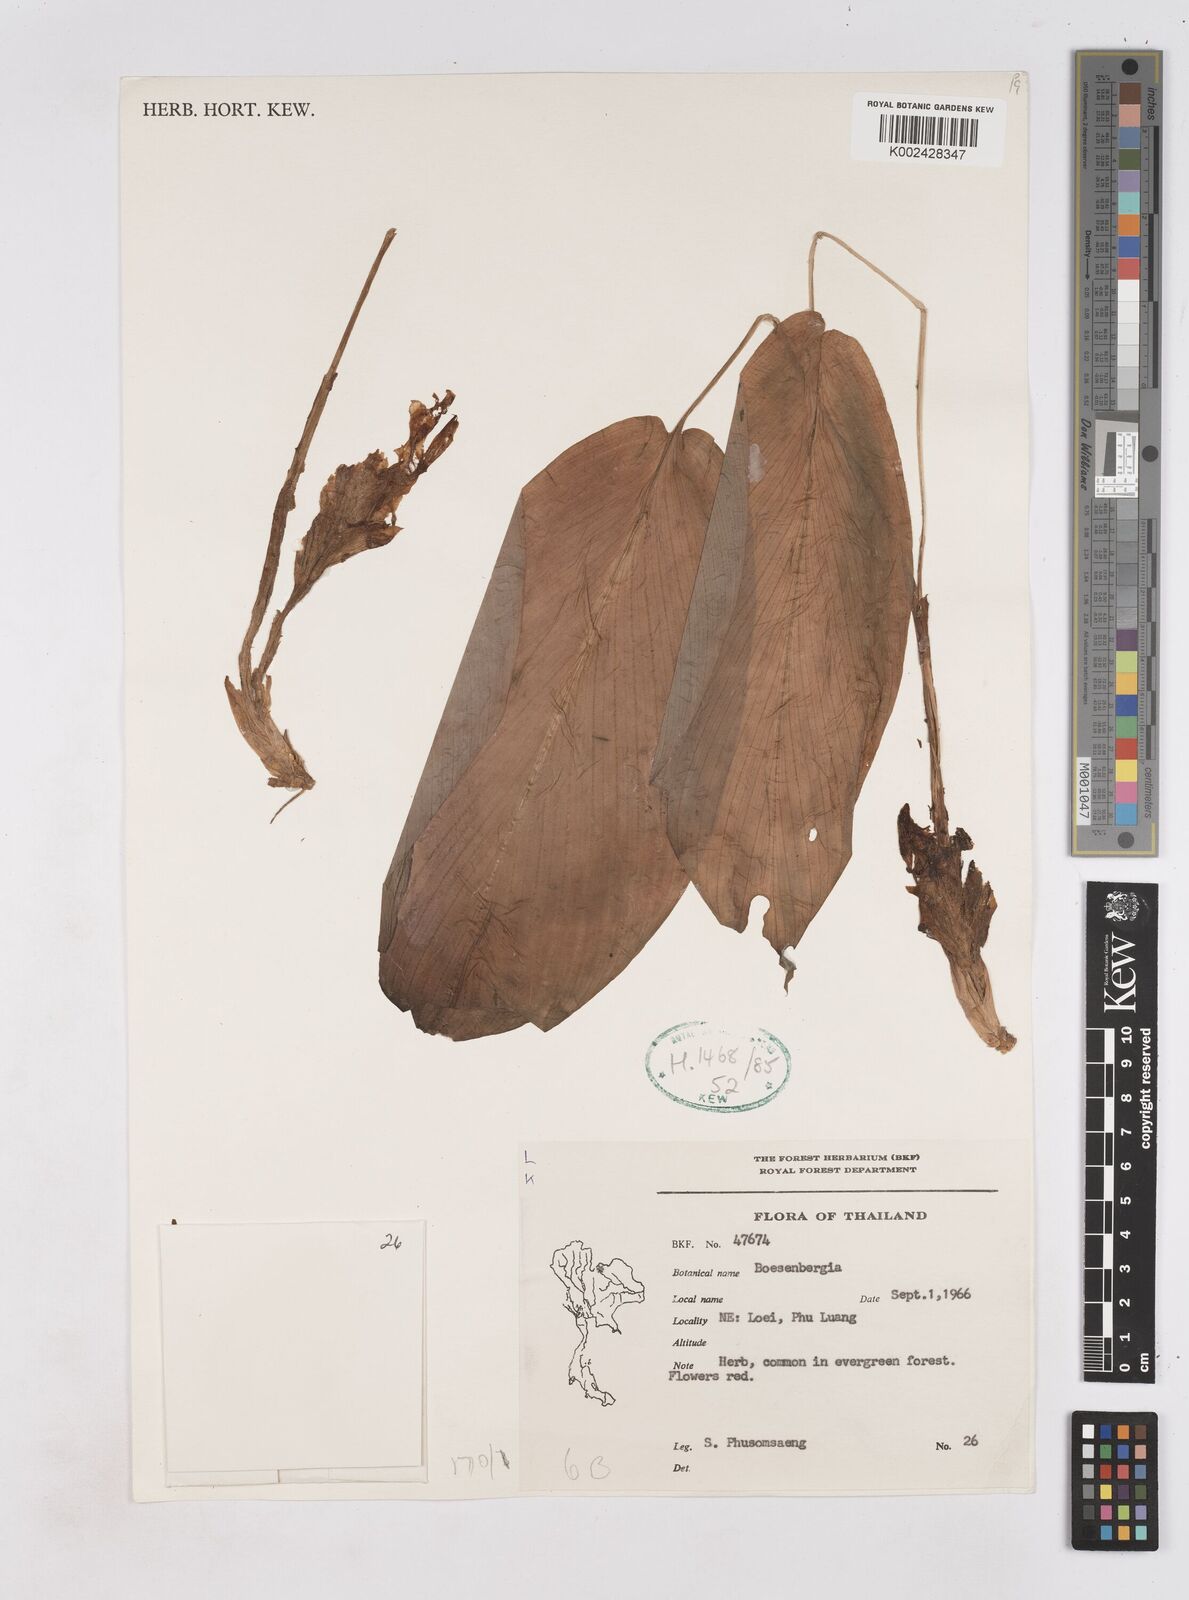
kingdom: Plantae
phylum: Tracheophyta
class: Liliopsida
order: Zingiberales
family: Zingiberaceae
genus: Boesenbergia
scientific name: Boesenbergia
